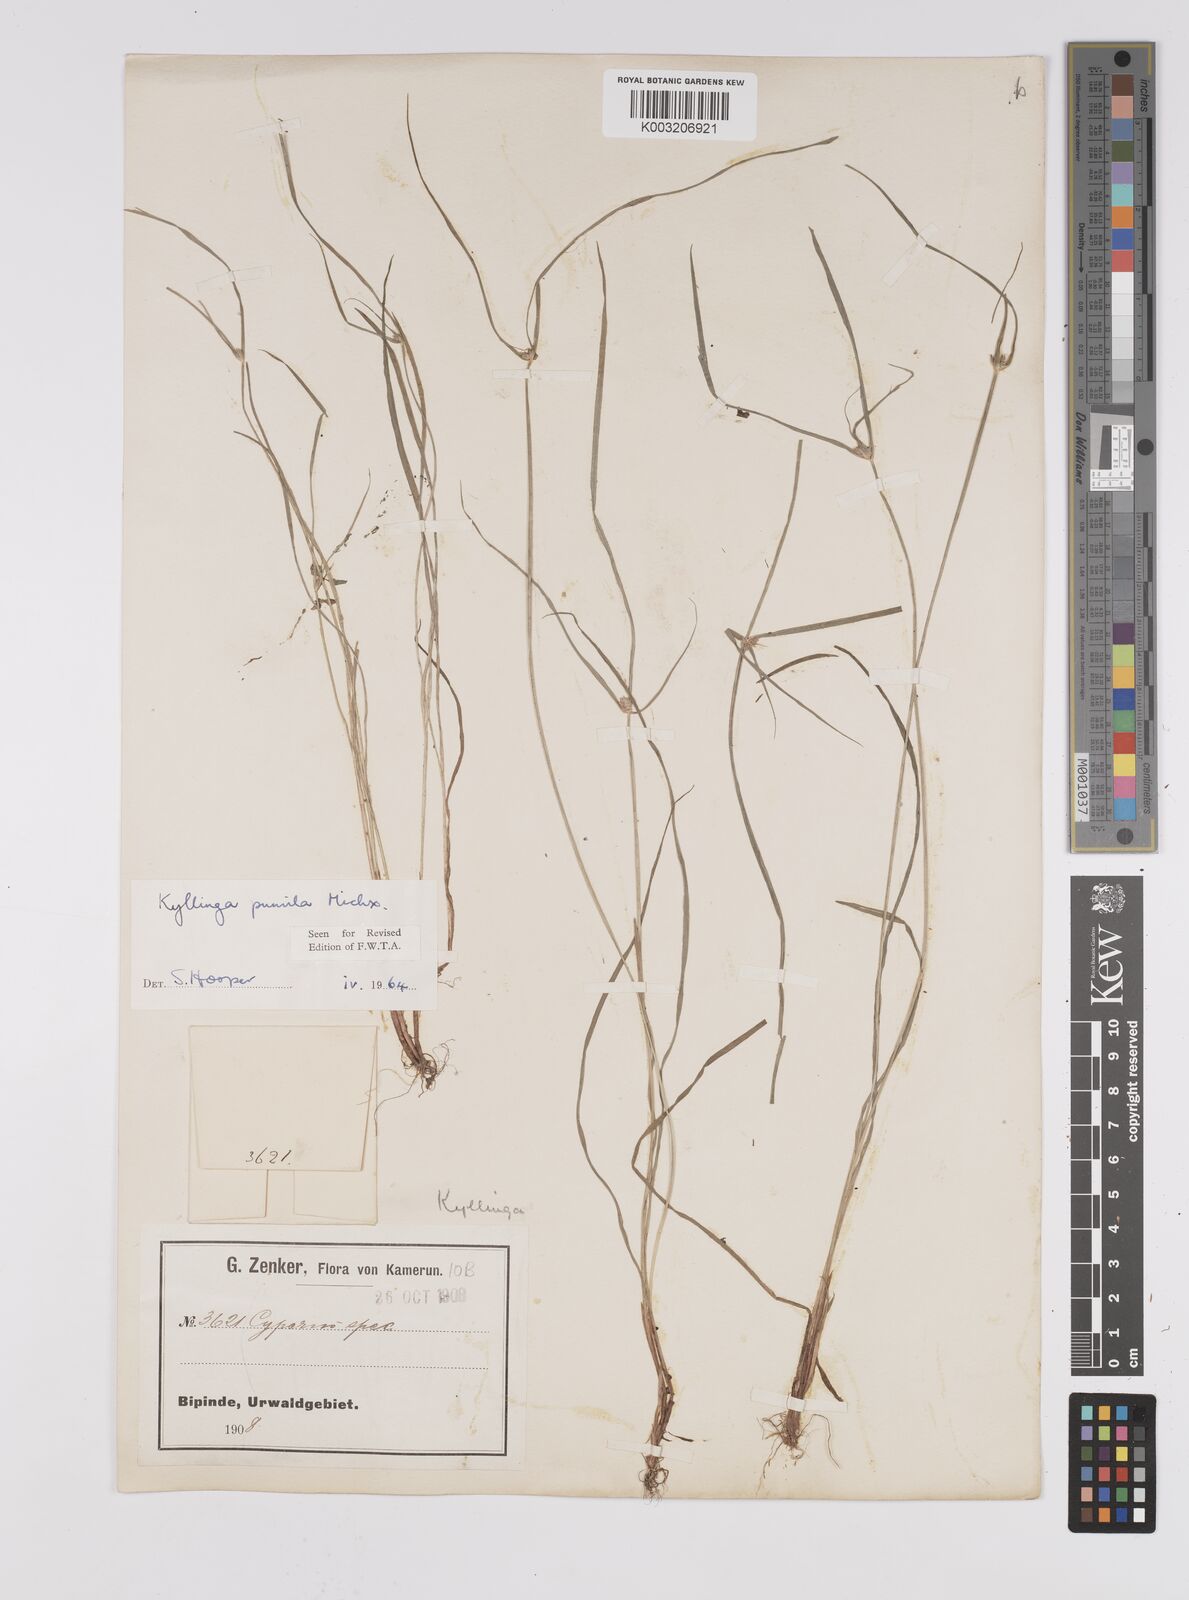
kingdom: Plantae
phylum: Tracheophyta
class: Liliopsida
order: Poales
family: Cyperaceae
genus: Cyperus
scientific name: Cyperus hortensis
